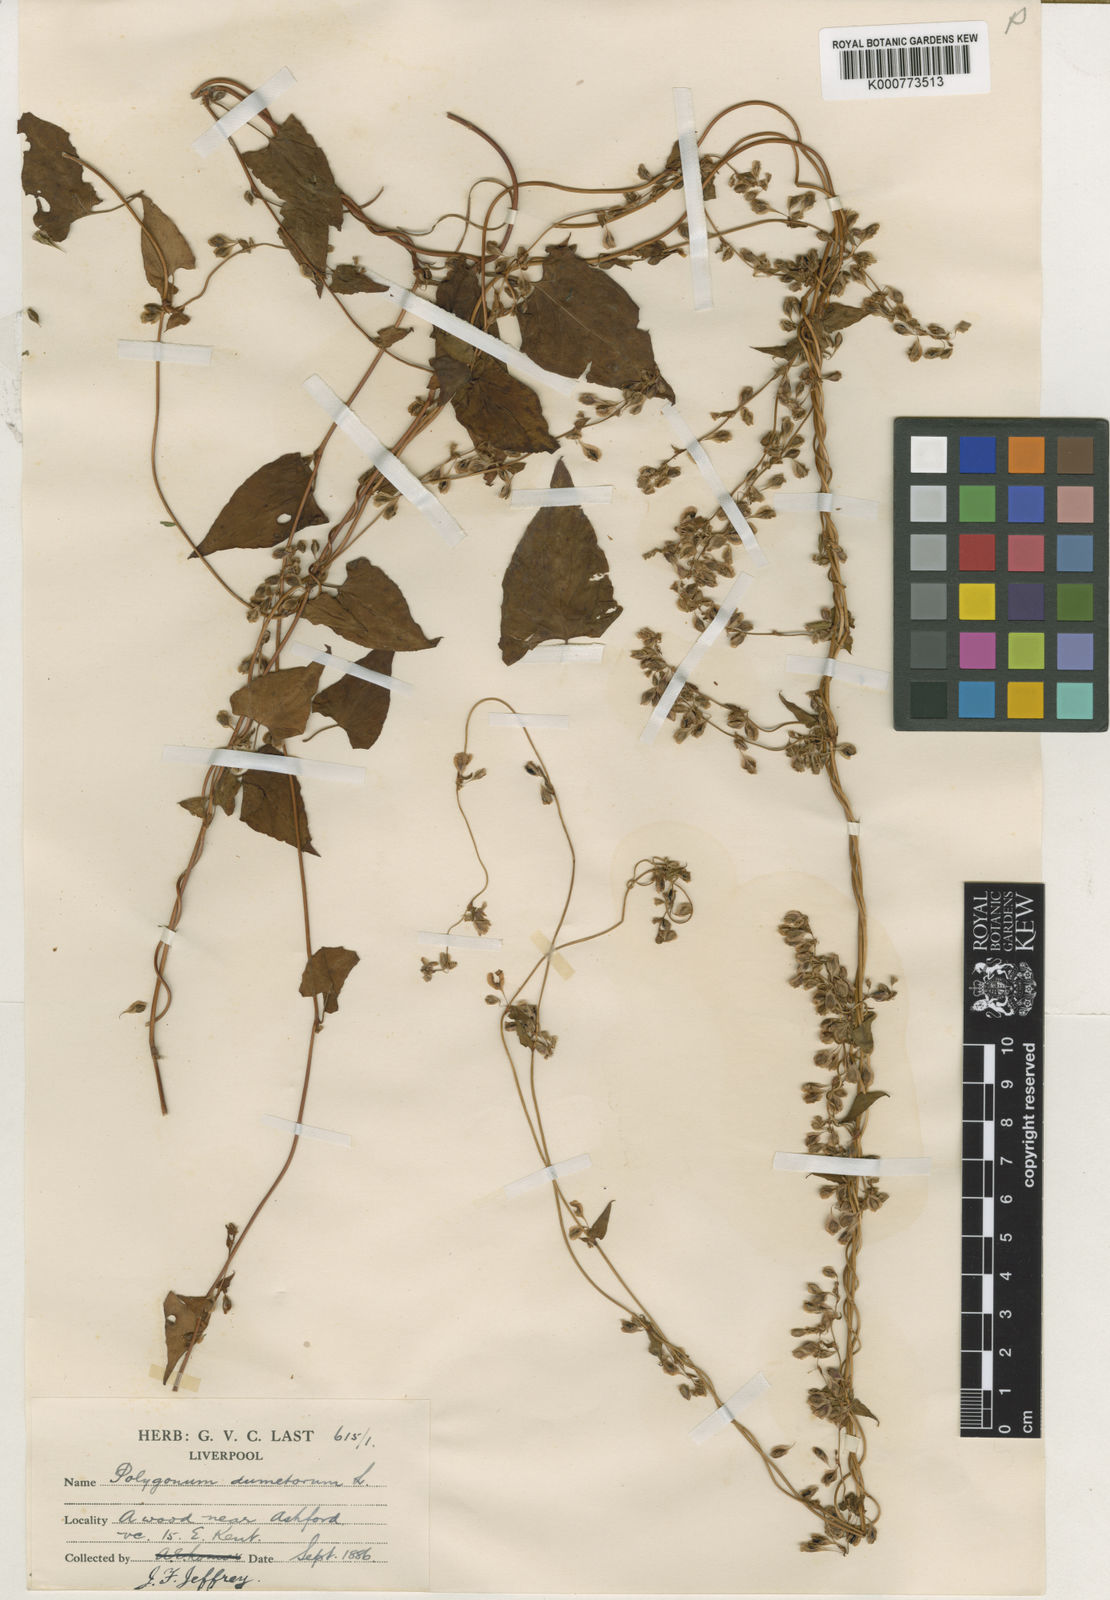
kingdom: Plantae
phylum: Tracheophyta
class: Magnoliopsida
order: Caryophyllales
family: Polygonaceae
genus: Fallopia
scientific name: Fallopia dumetorum
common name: Copse-bindweed
